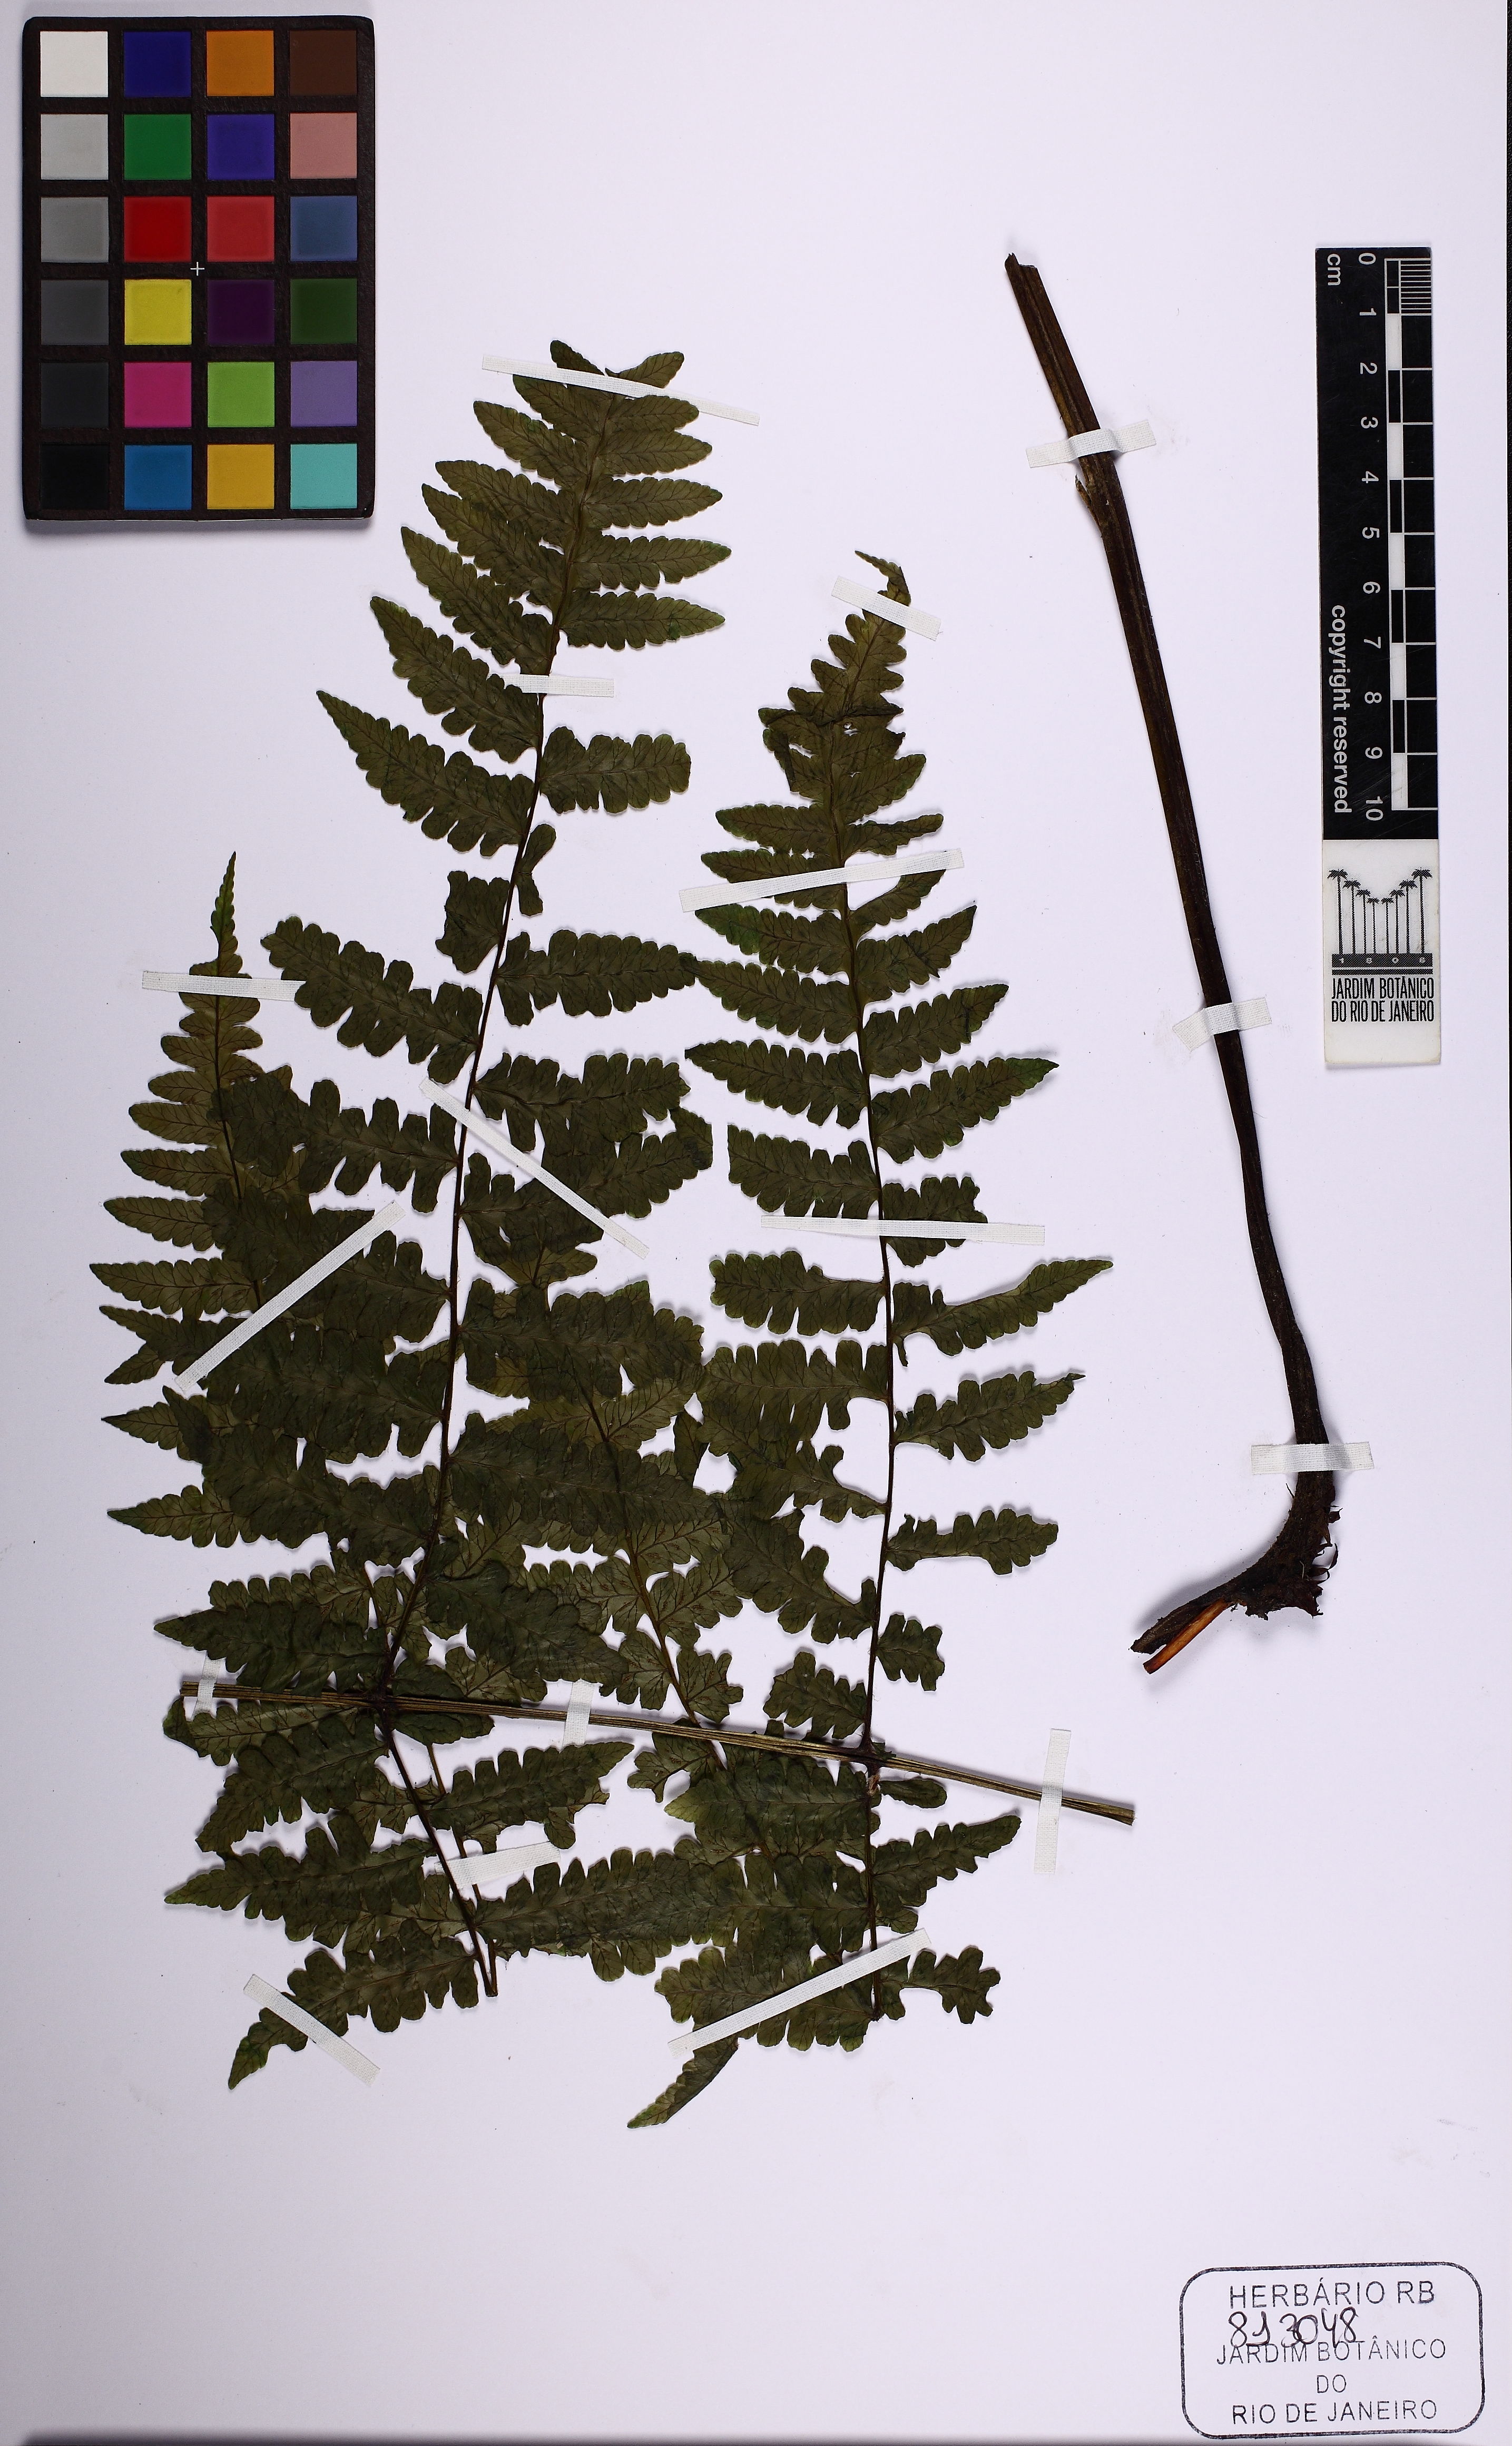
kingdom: Plantae
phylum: Tracheophyta
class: Polypodiopsida
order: Polypodiales
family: Athyriaceae
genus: Diplazium
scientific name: Diplazium leptocarpon
